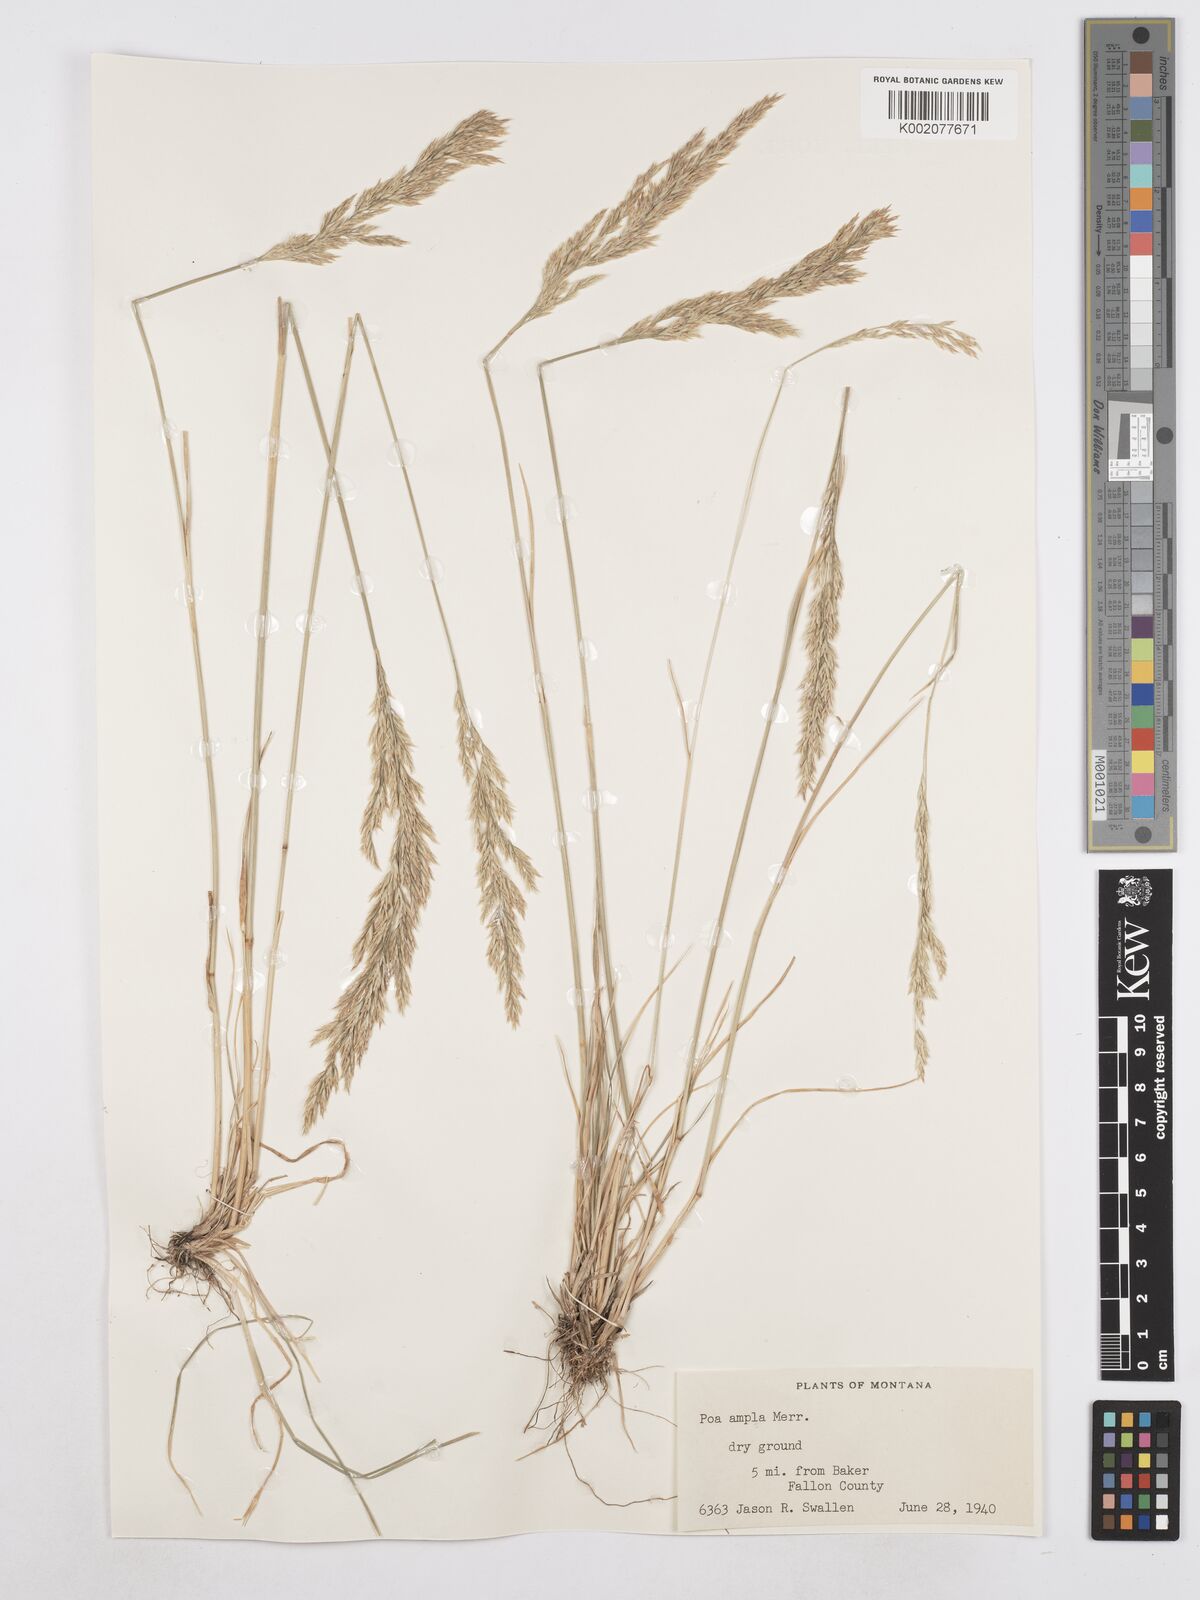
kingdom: Plantae
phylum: Tracheophyta
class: Liliopsida
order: Poales
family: Poaceae
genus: Poa
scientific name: Poa secunda
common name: Sandberg bluegrass
